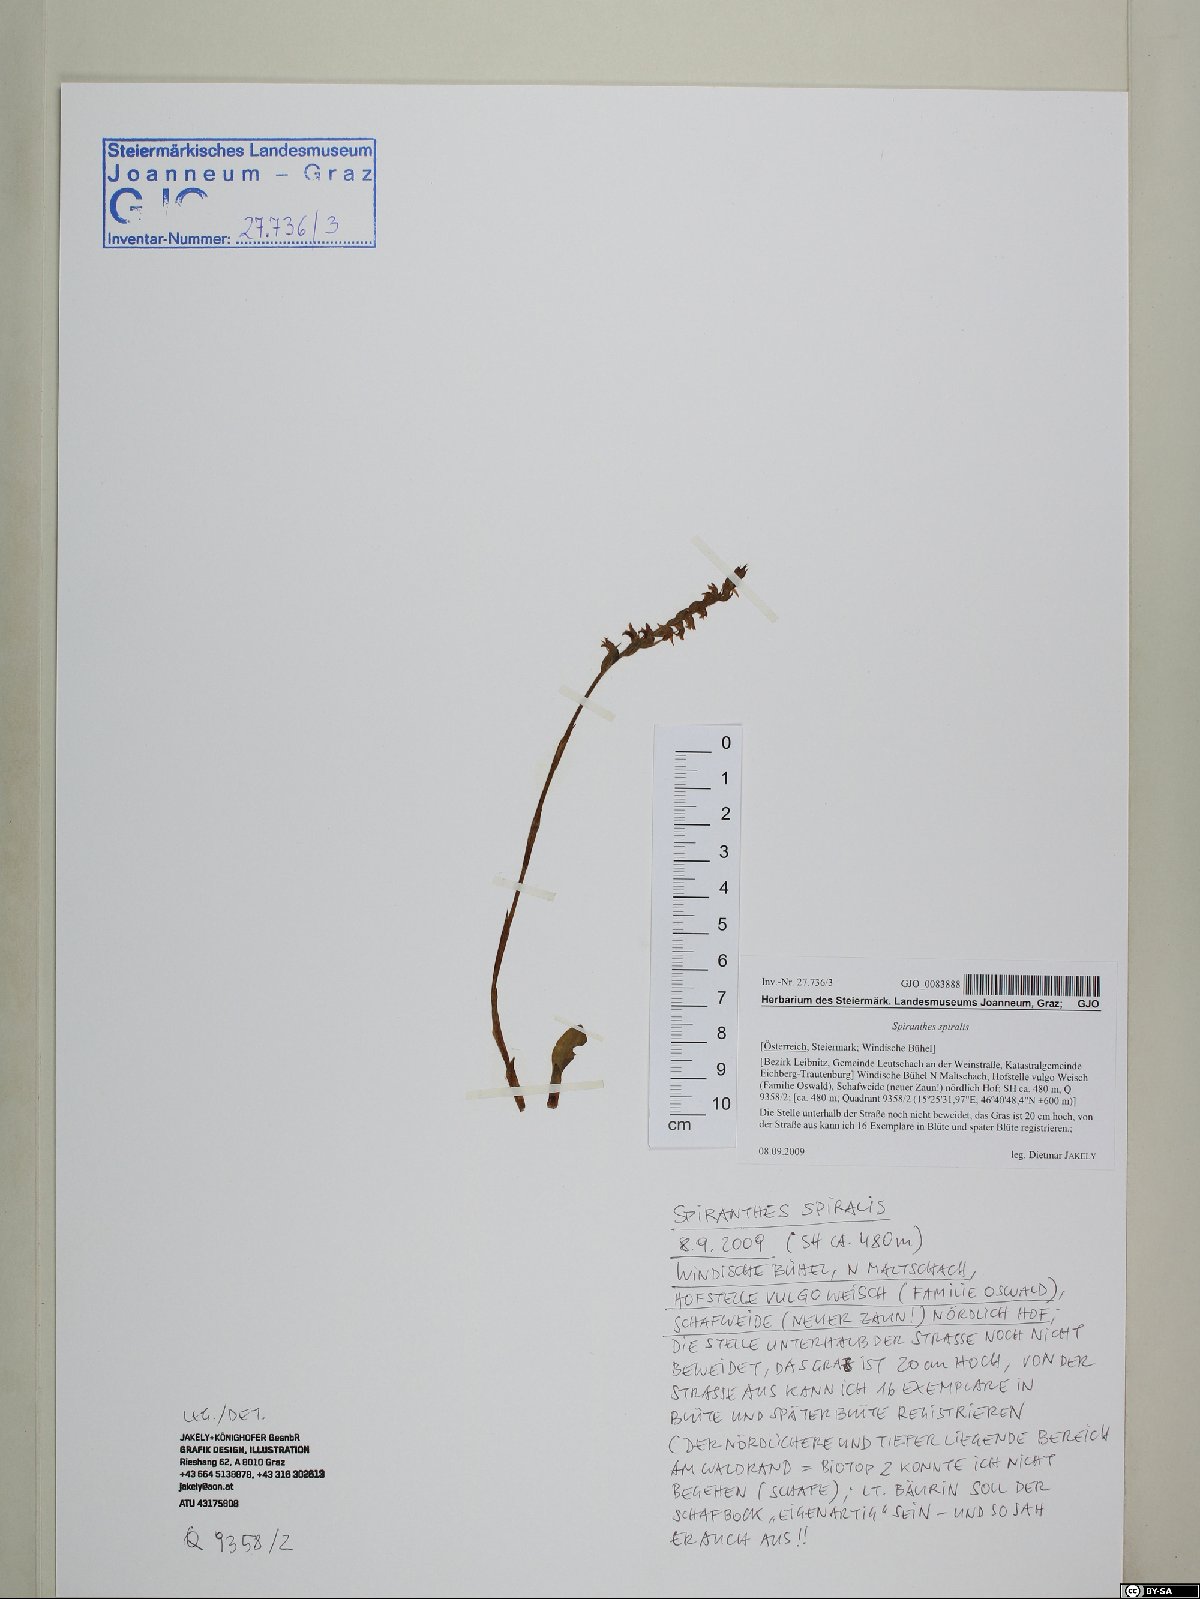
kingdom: Plantae
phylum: Tracheophyta
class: Liliopsida
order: Asparagales
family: Orchidaceae
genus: Spiranthes
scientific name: Spiranthes spiralis
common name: Autumn lady's-tresses
